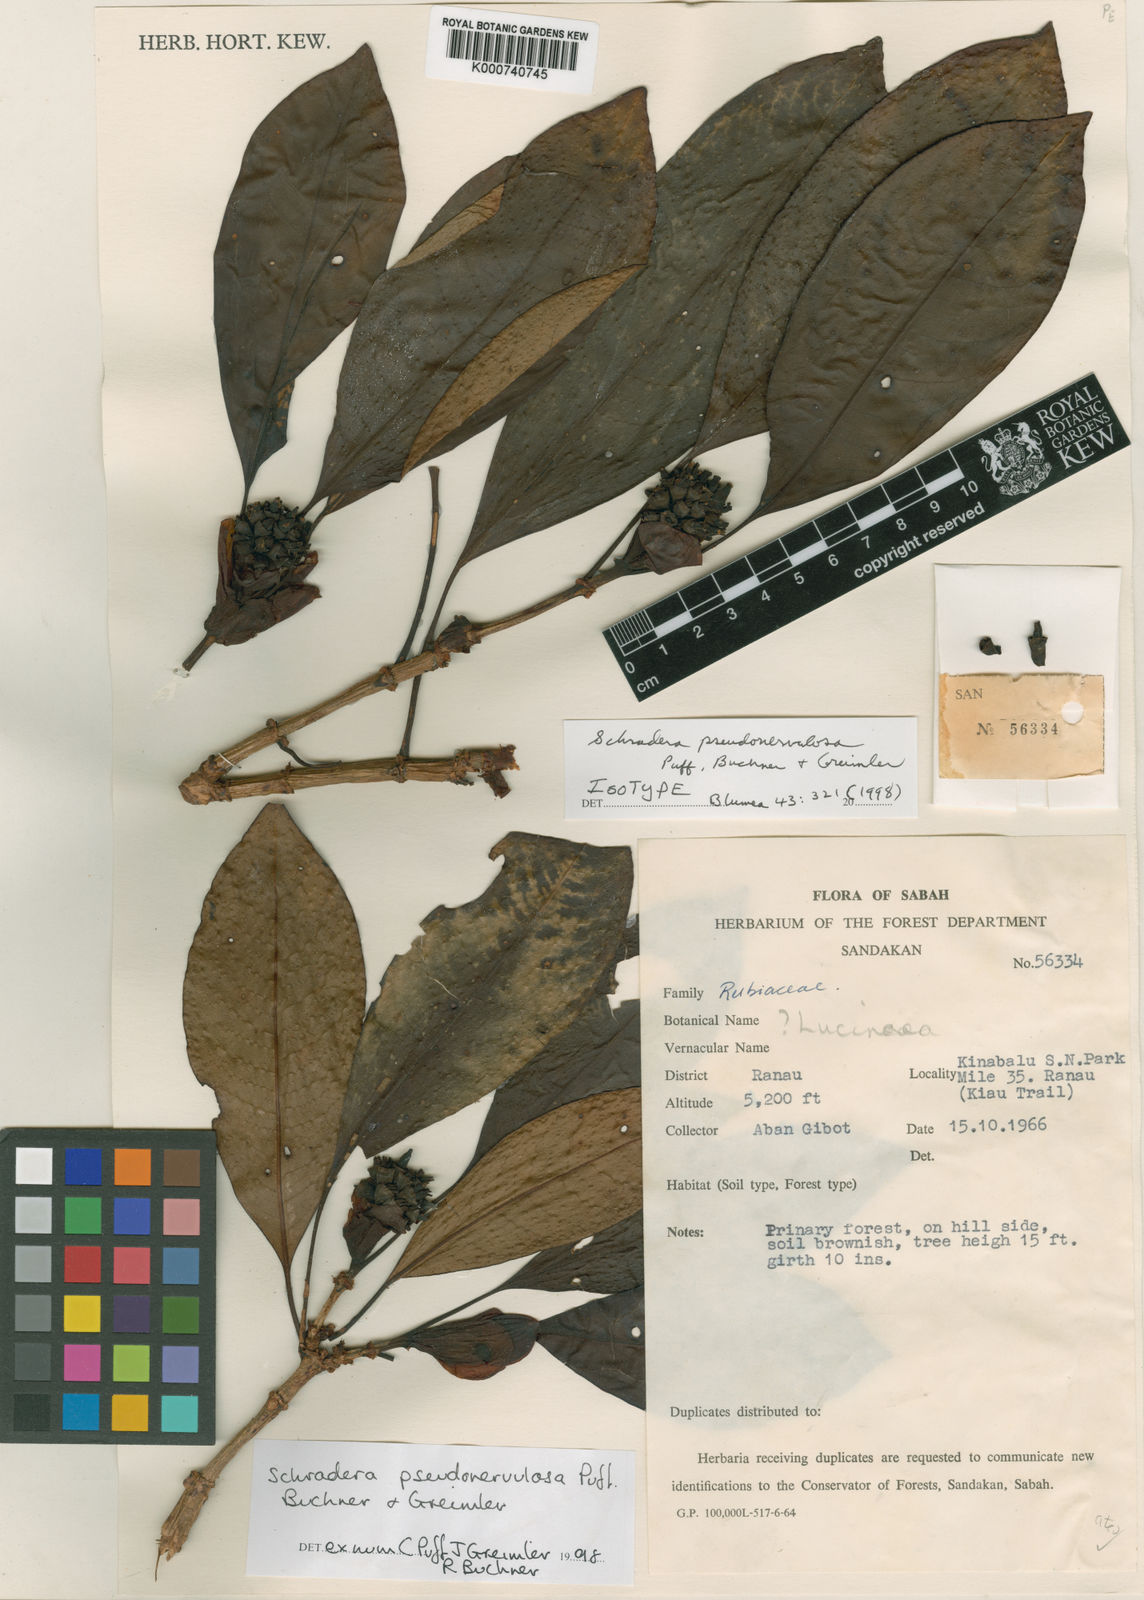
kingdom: Plantae
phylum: Tracheophyta
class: Magnoliopsida
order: Gentianales
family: Rubiaceae
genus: Schradera
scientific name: Schradera pseudonervulosa
